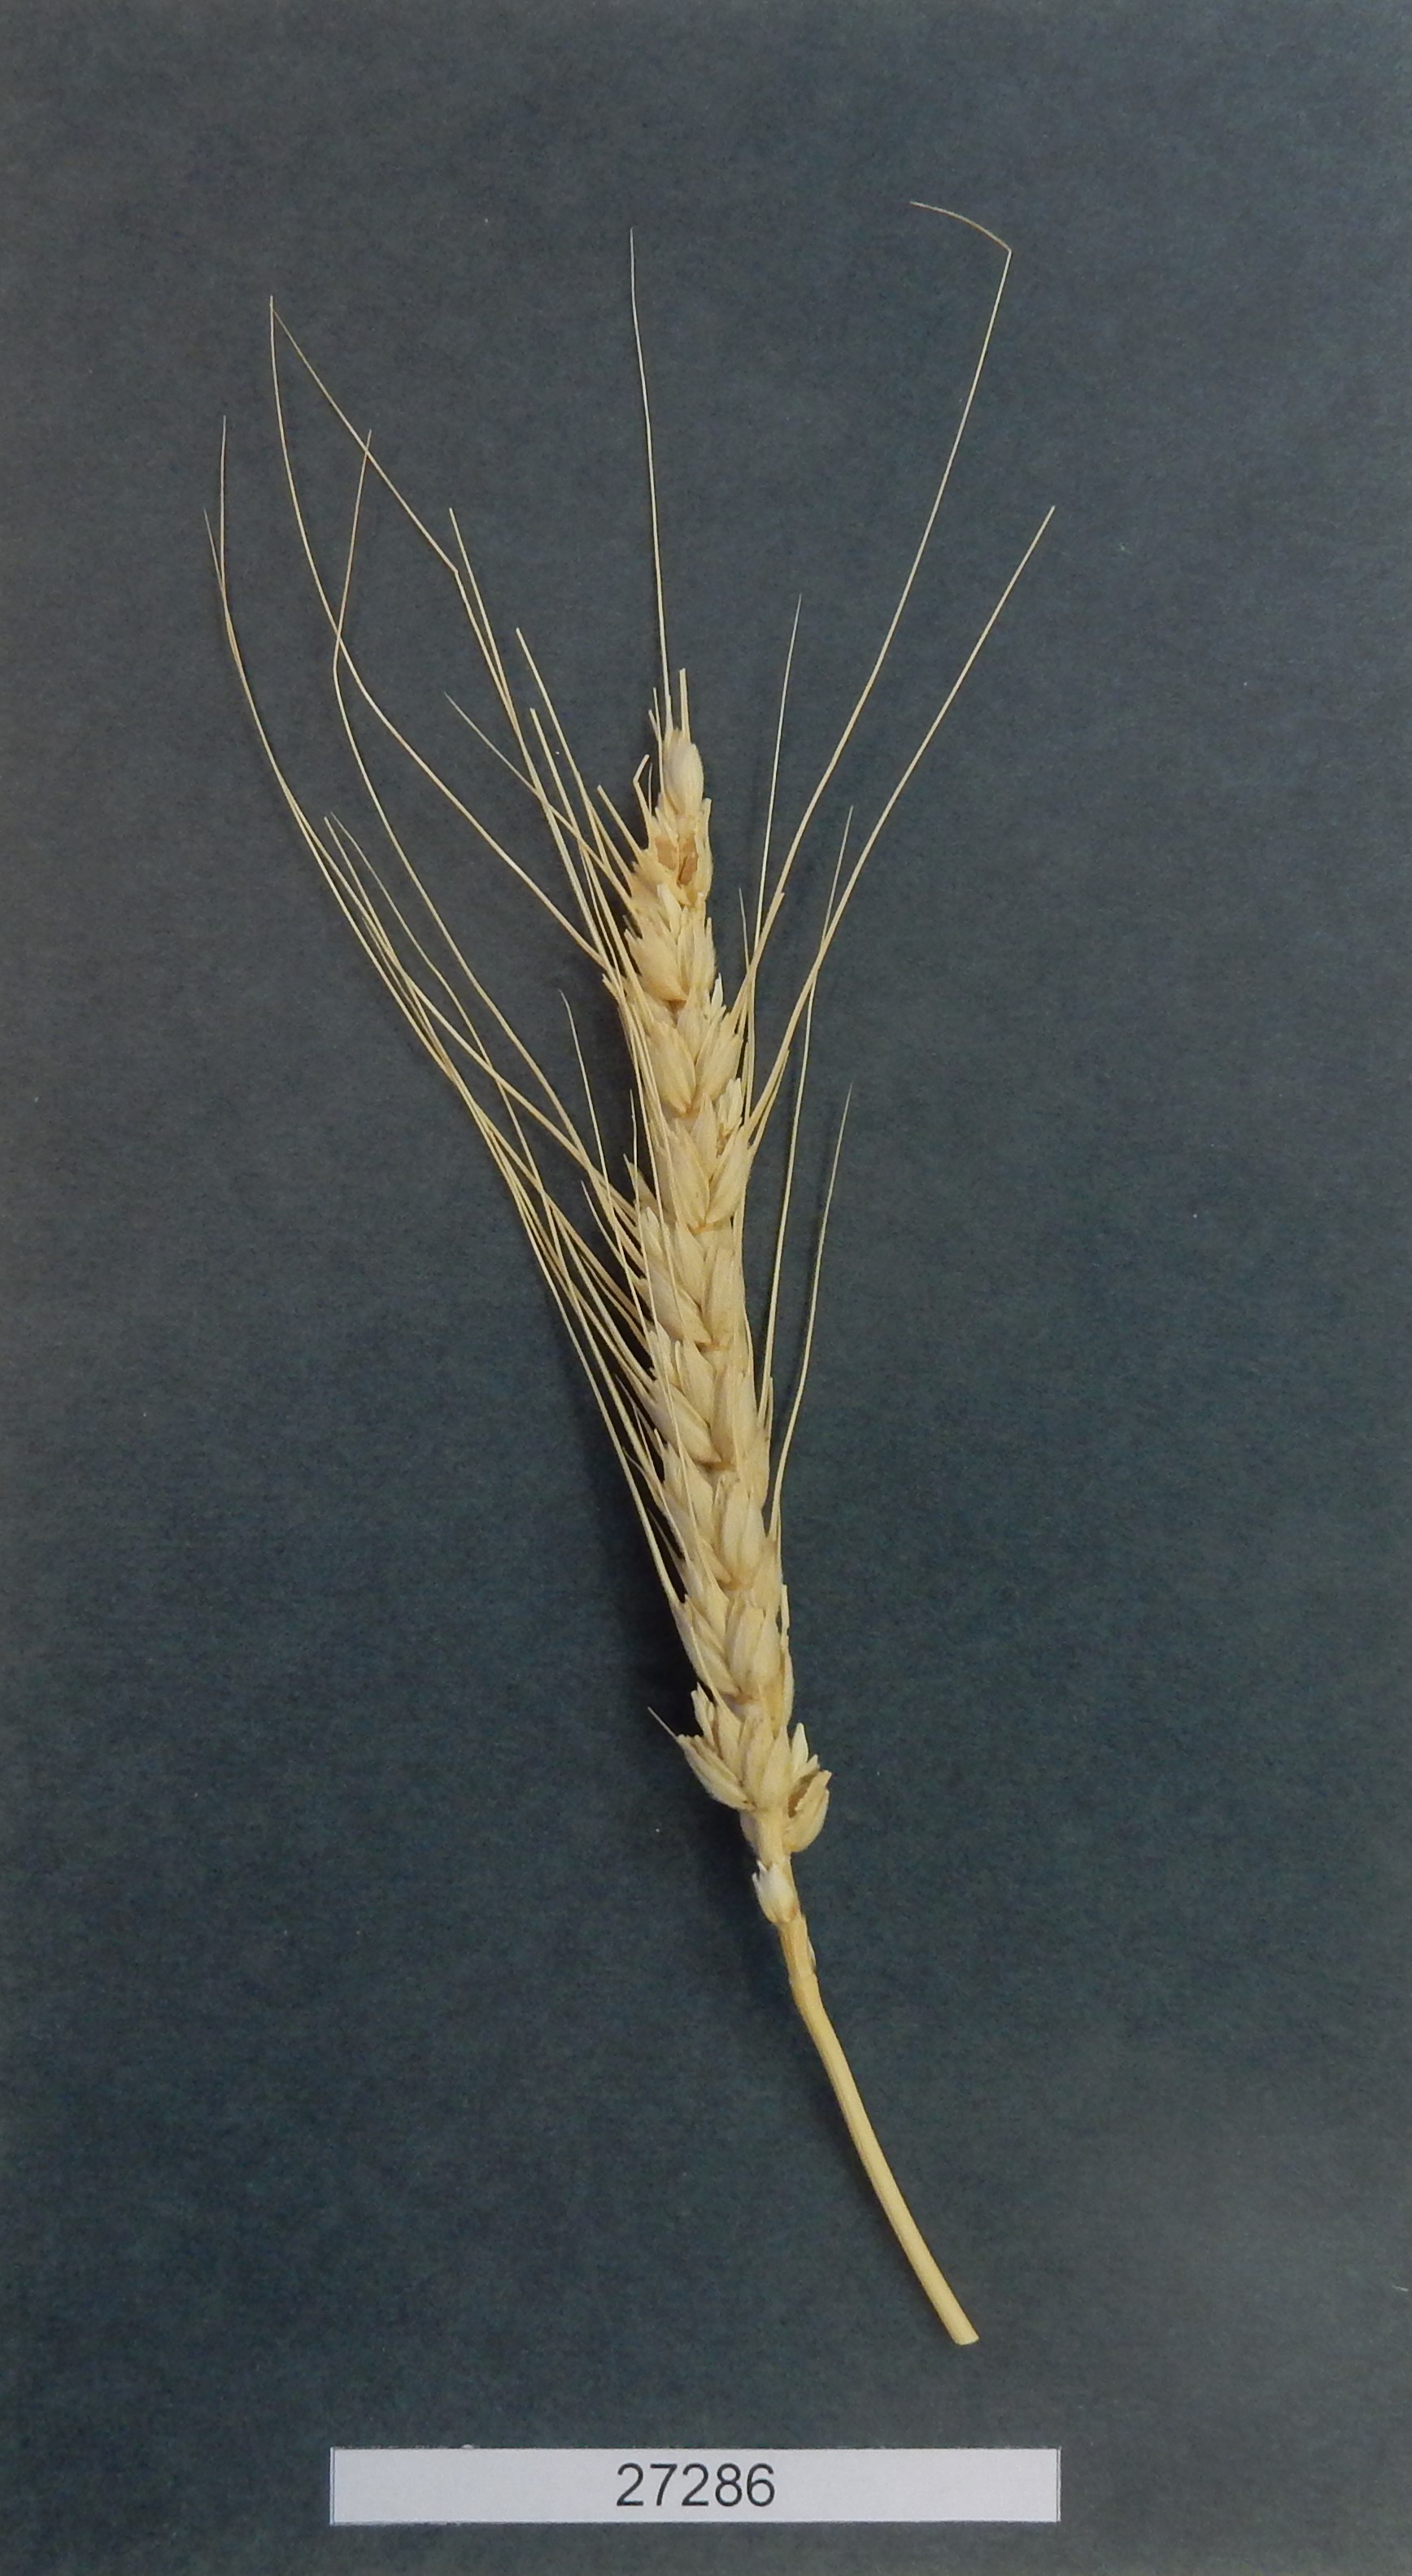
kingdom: Plantae
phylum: Tracheophyta
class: Liliopsida
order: Poales
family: Poaceae
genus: Triticum
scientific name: Triticum aestivum
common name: Common wheat
